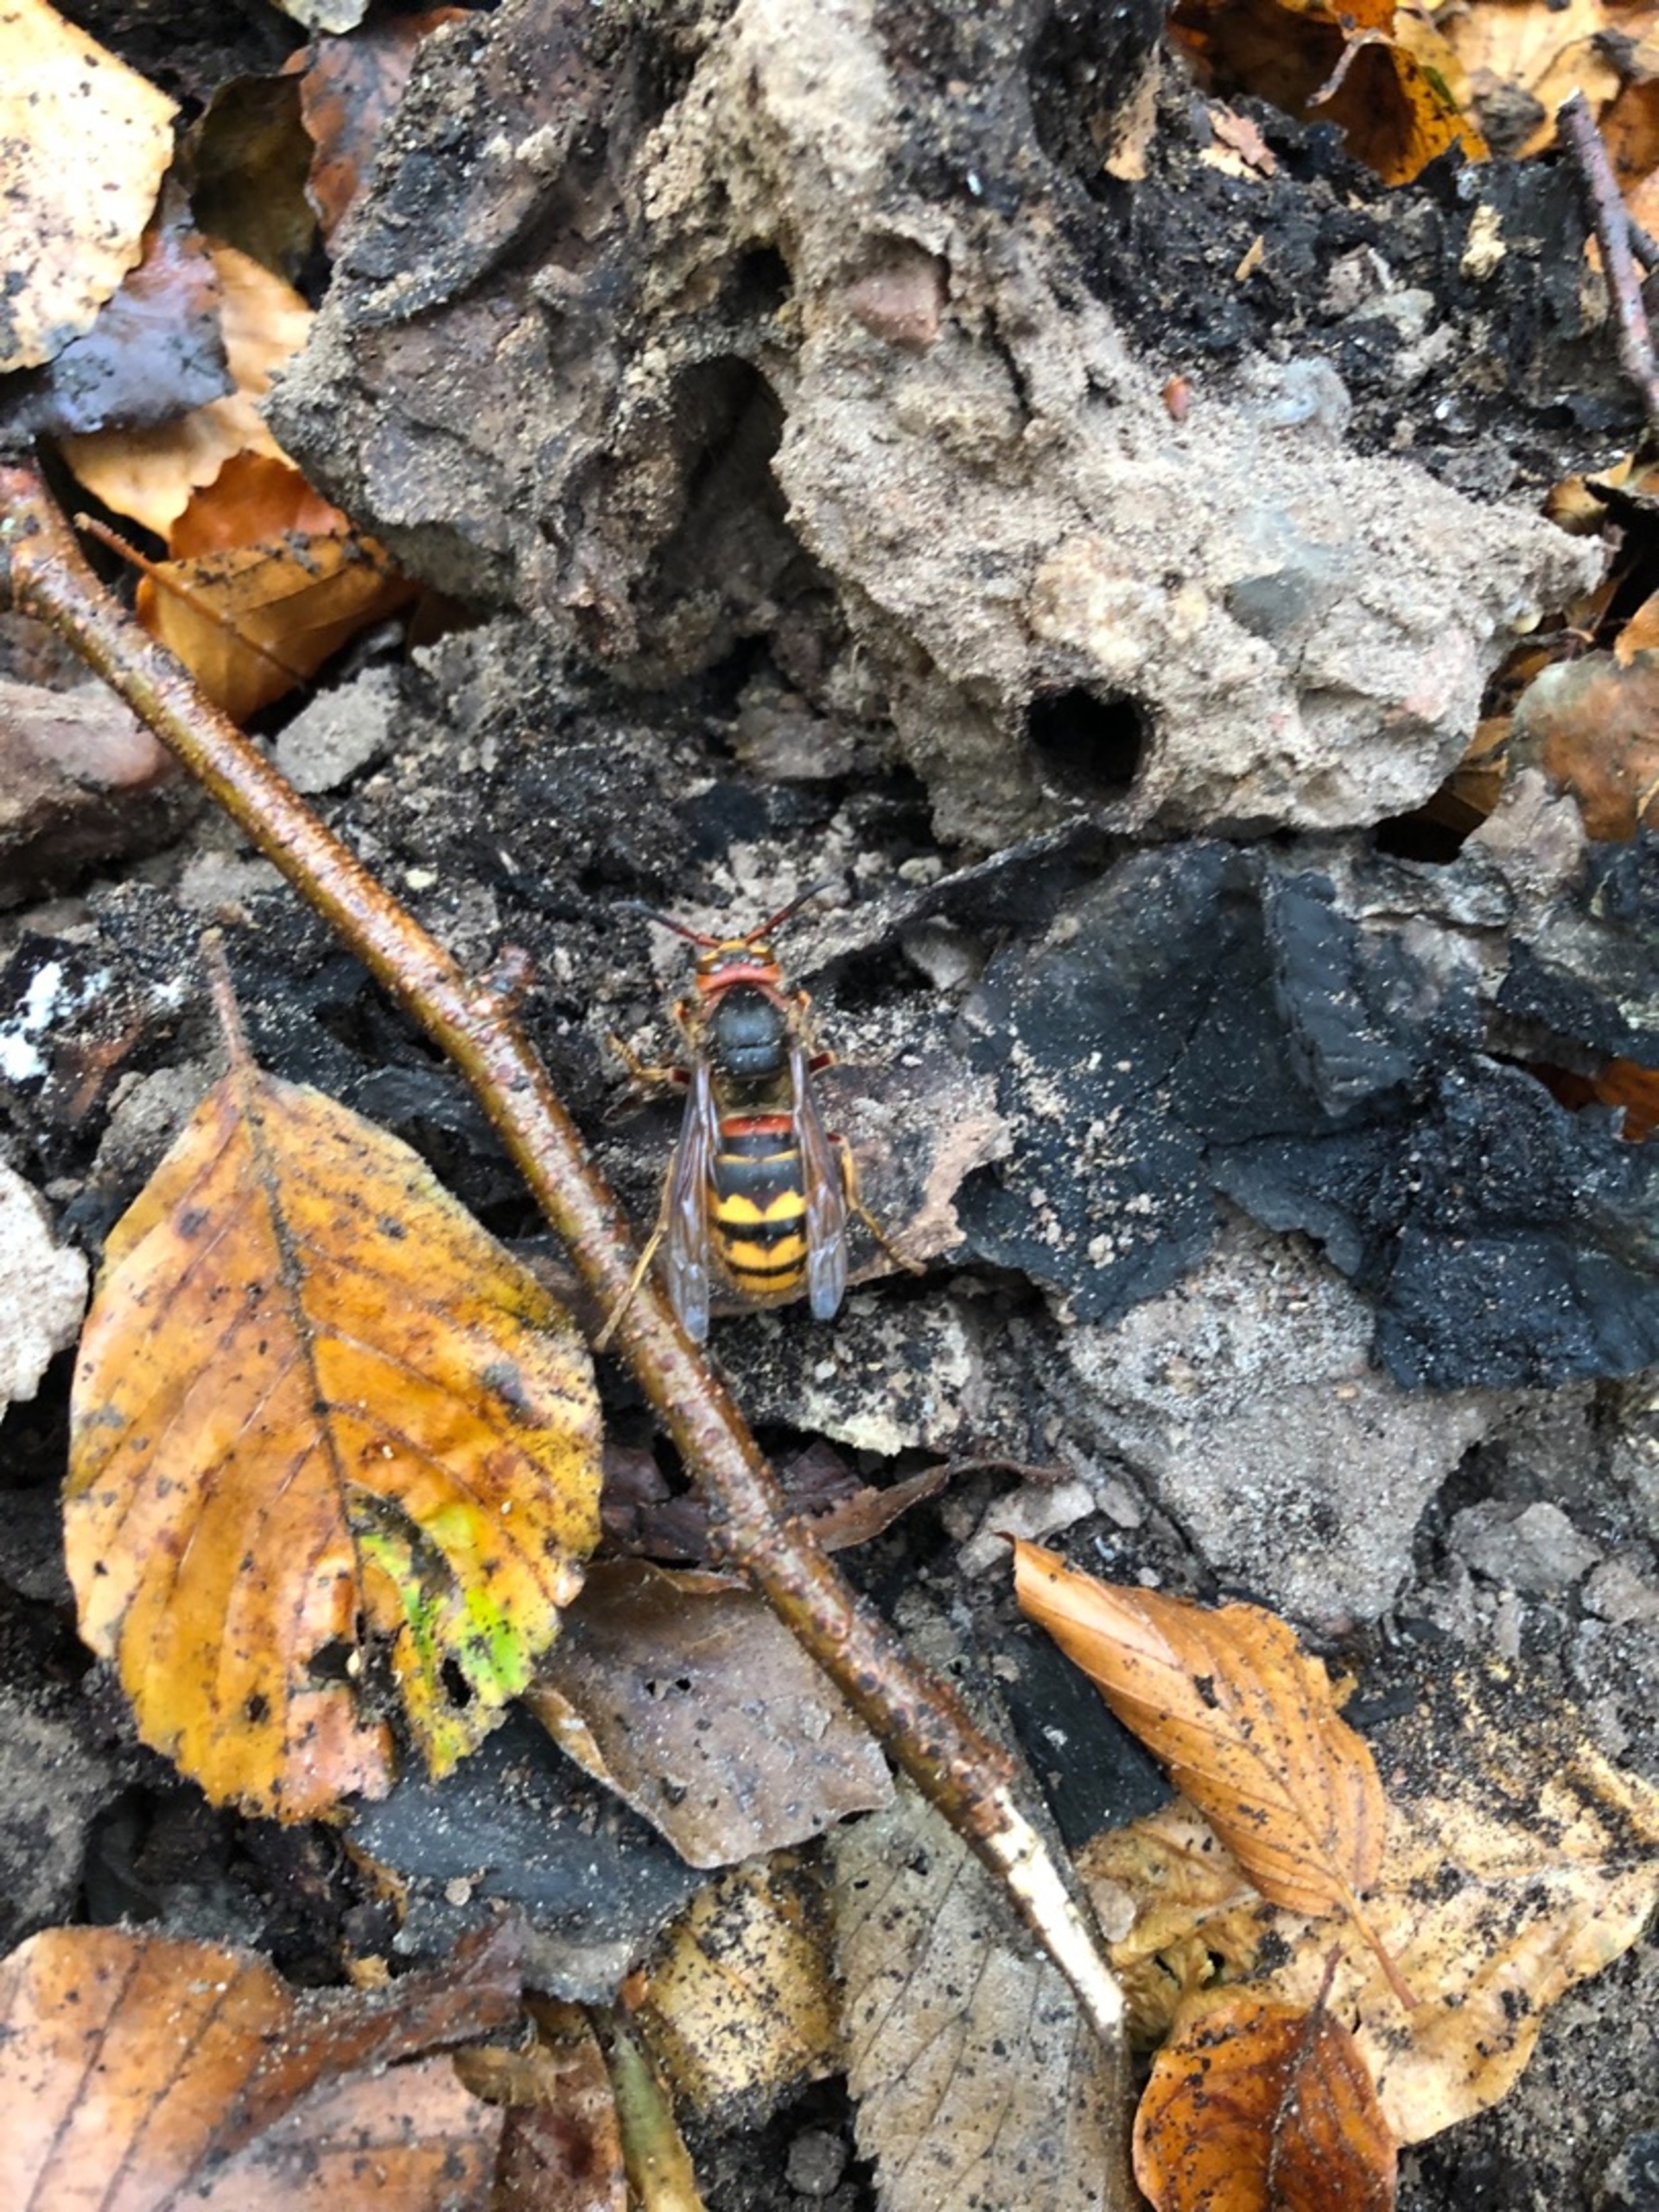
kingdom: Animalia
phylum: Arthropoda
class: Insecta
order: Hymenoptera
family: Vespidae
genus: Vespa
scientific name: Vespa crabro
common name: Stor gedehams
